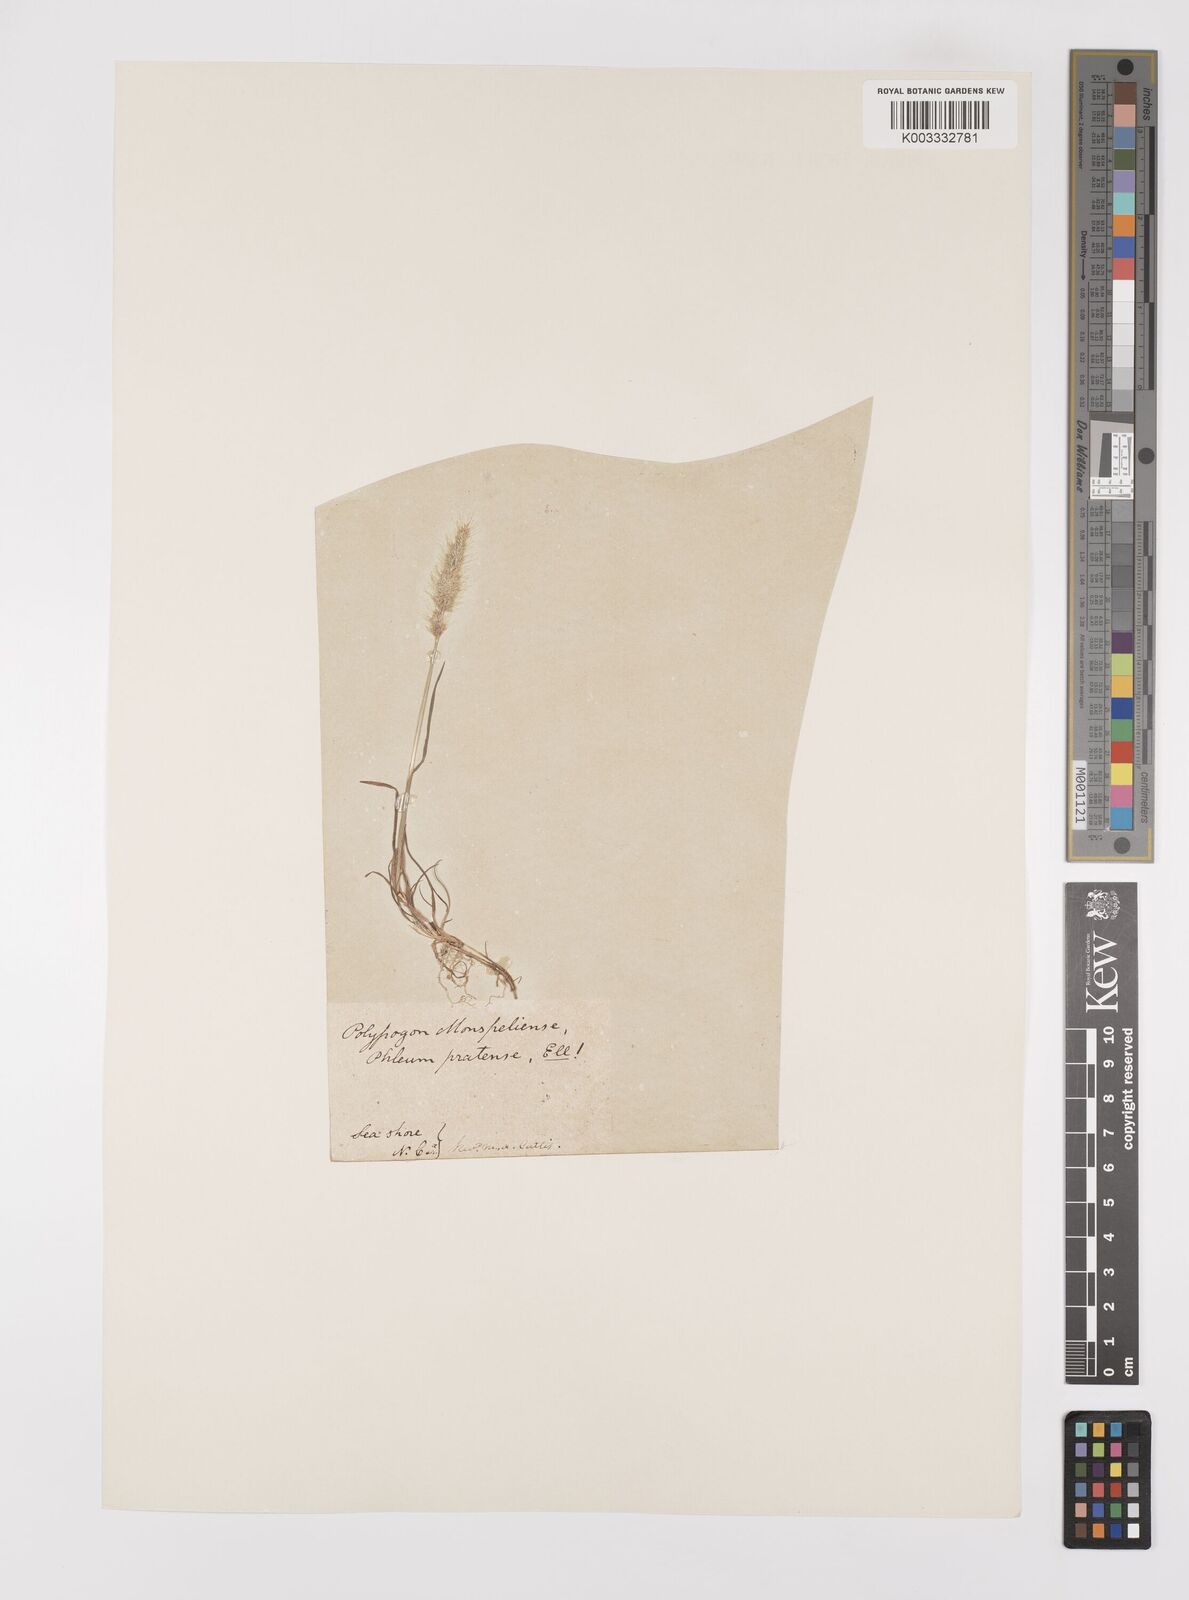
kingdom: Plantae
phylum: Tracheophyta
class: Liliopsida
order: Poales
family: Poaceae
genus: Polypogon
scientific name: Polypogon monspeliensis
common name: Annual rabbitsfoot grass
